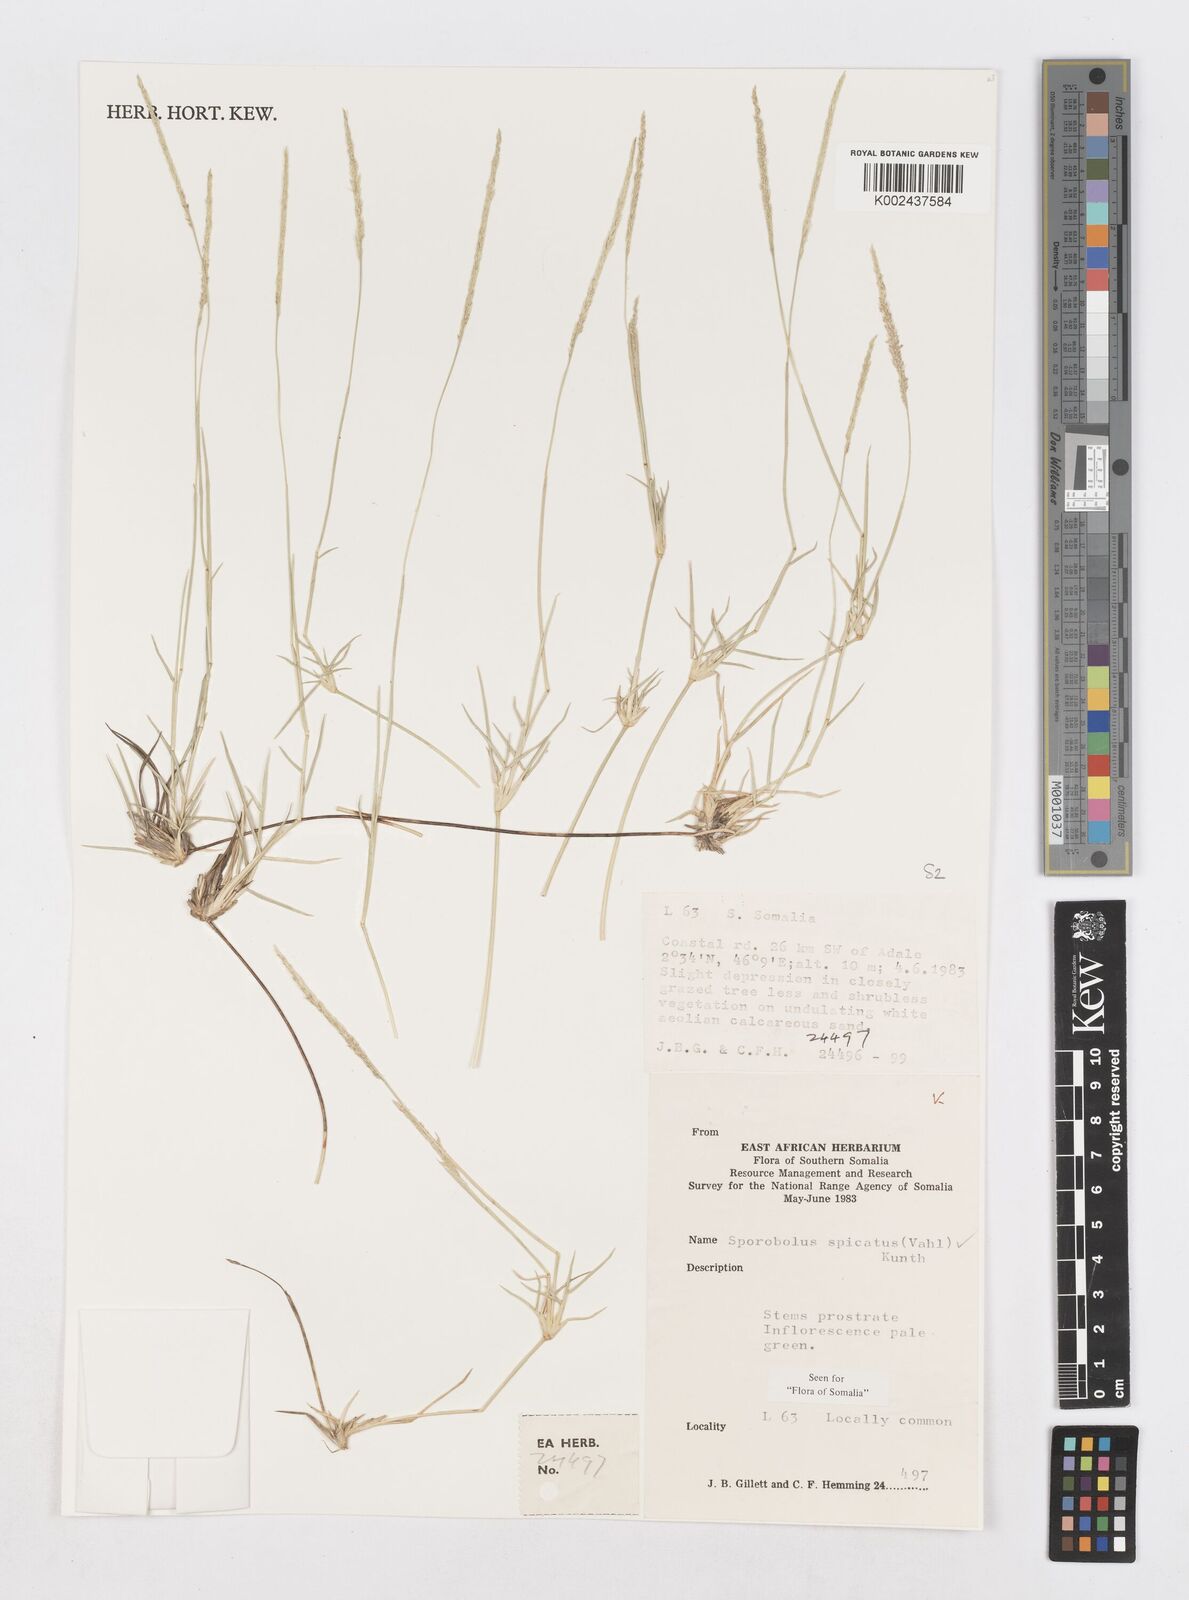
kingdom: Plantae
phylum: Tracheophyta
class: Liliopsida
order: Poales
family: Poaceae
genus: Sporobolus
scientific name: Sporobolus spicatus
